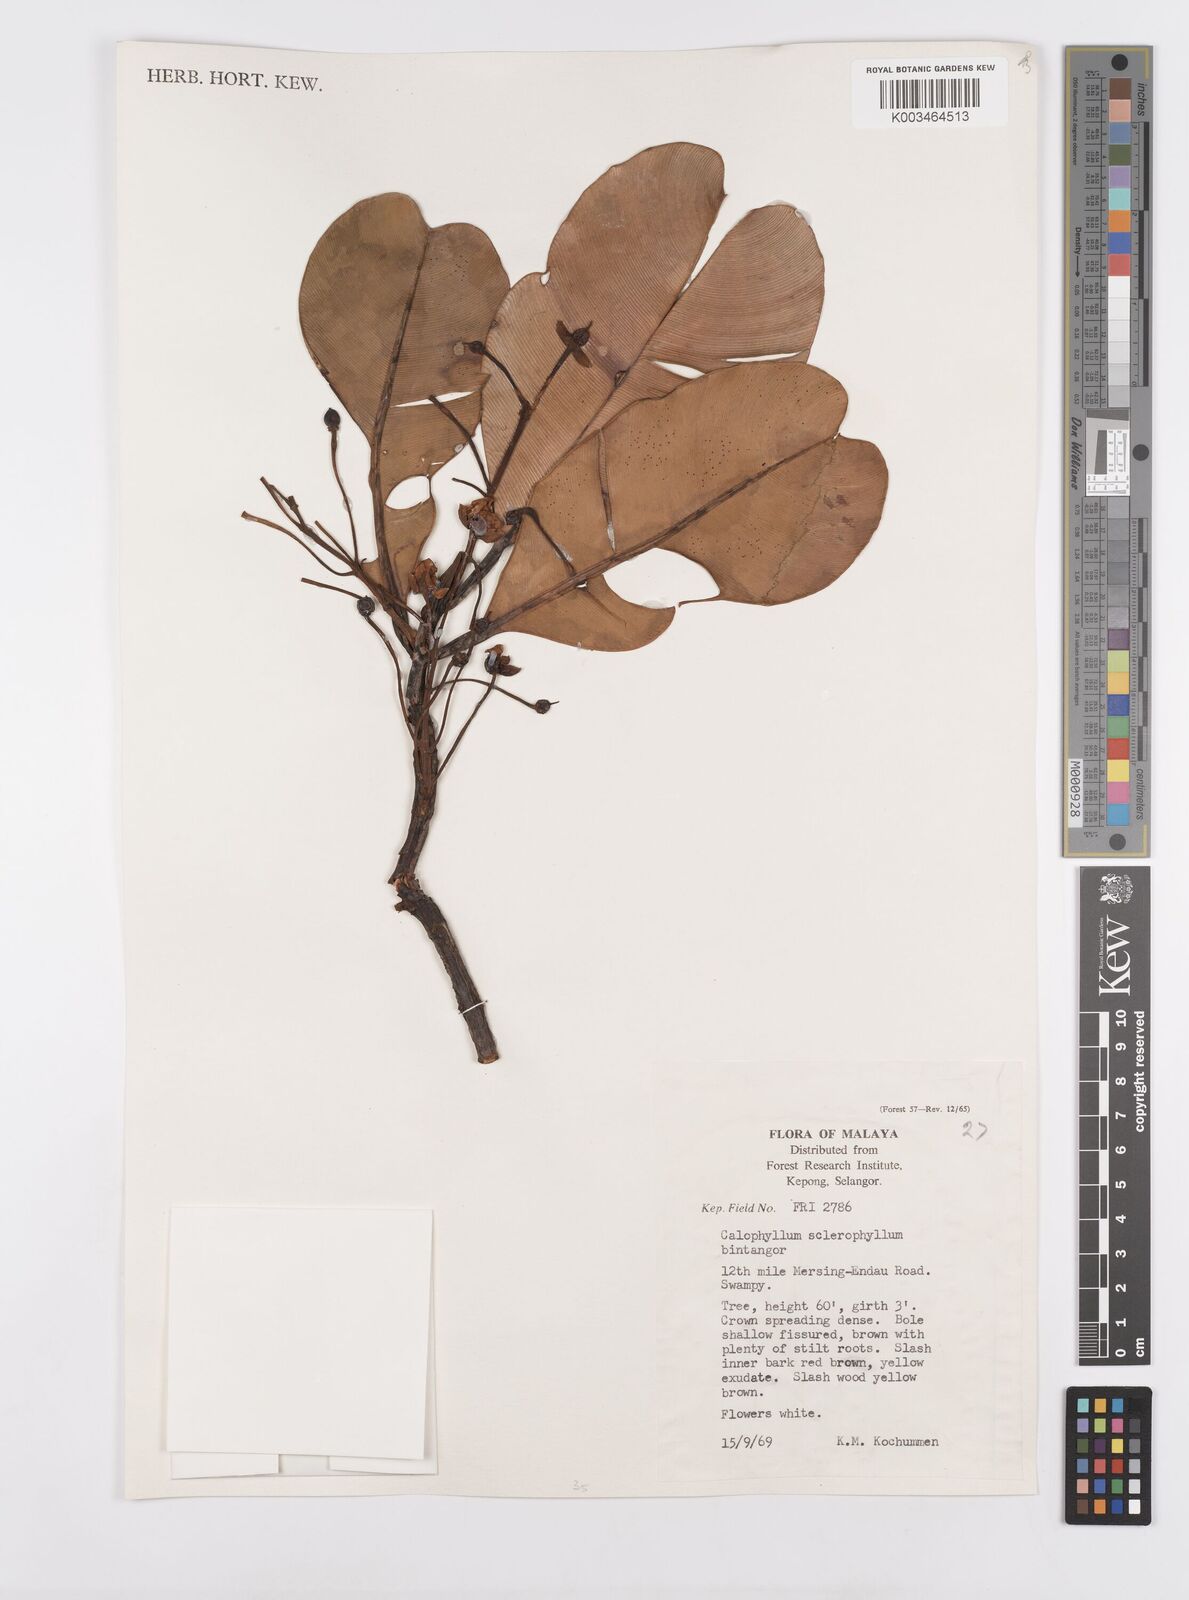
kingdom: Plantae
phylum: Tracheophyta
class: Magnoliopsida
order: Malpighiales
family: Calophyllaceae
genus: Calophyllum
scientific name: Calophyllum sclerophyllum
